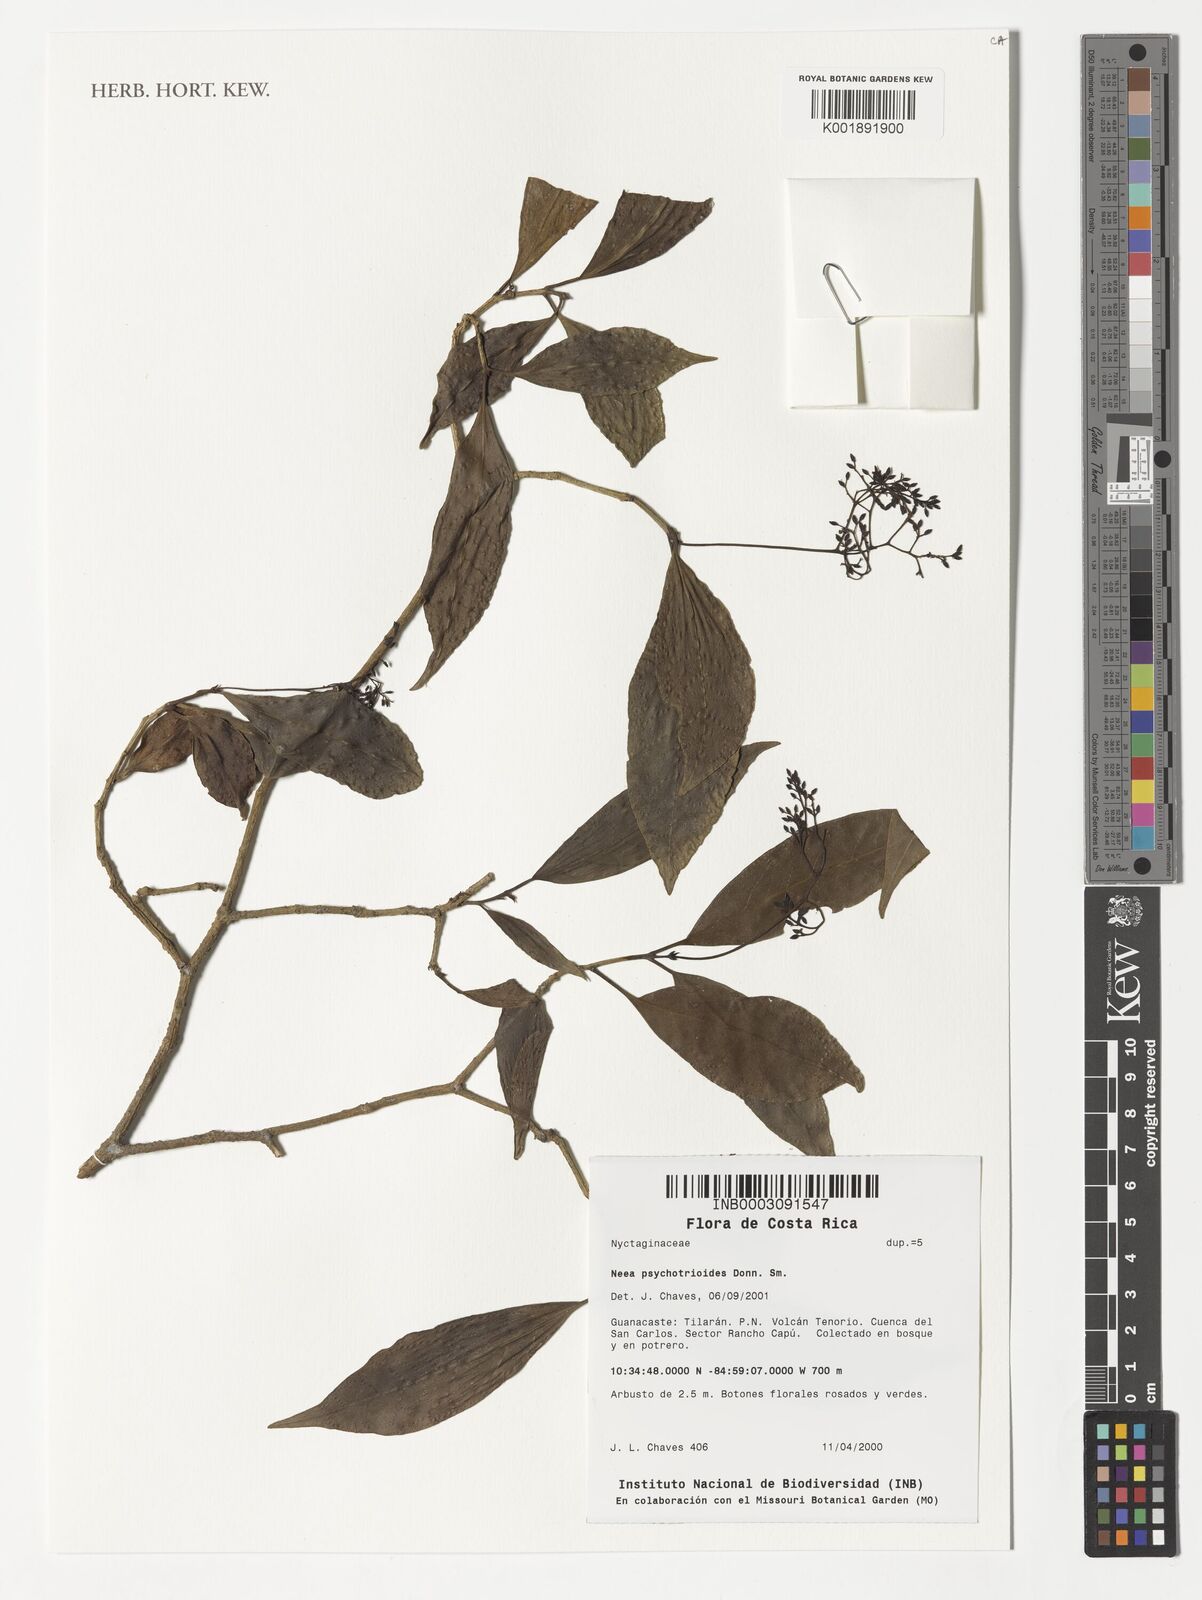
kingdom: Plantae
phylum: Tracheophyta
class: Magnoliopsida
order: Caryophyllales
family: Nyctaginaceae
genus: Neea
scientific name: Neea psychotrioides
